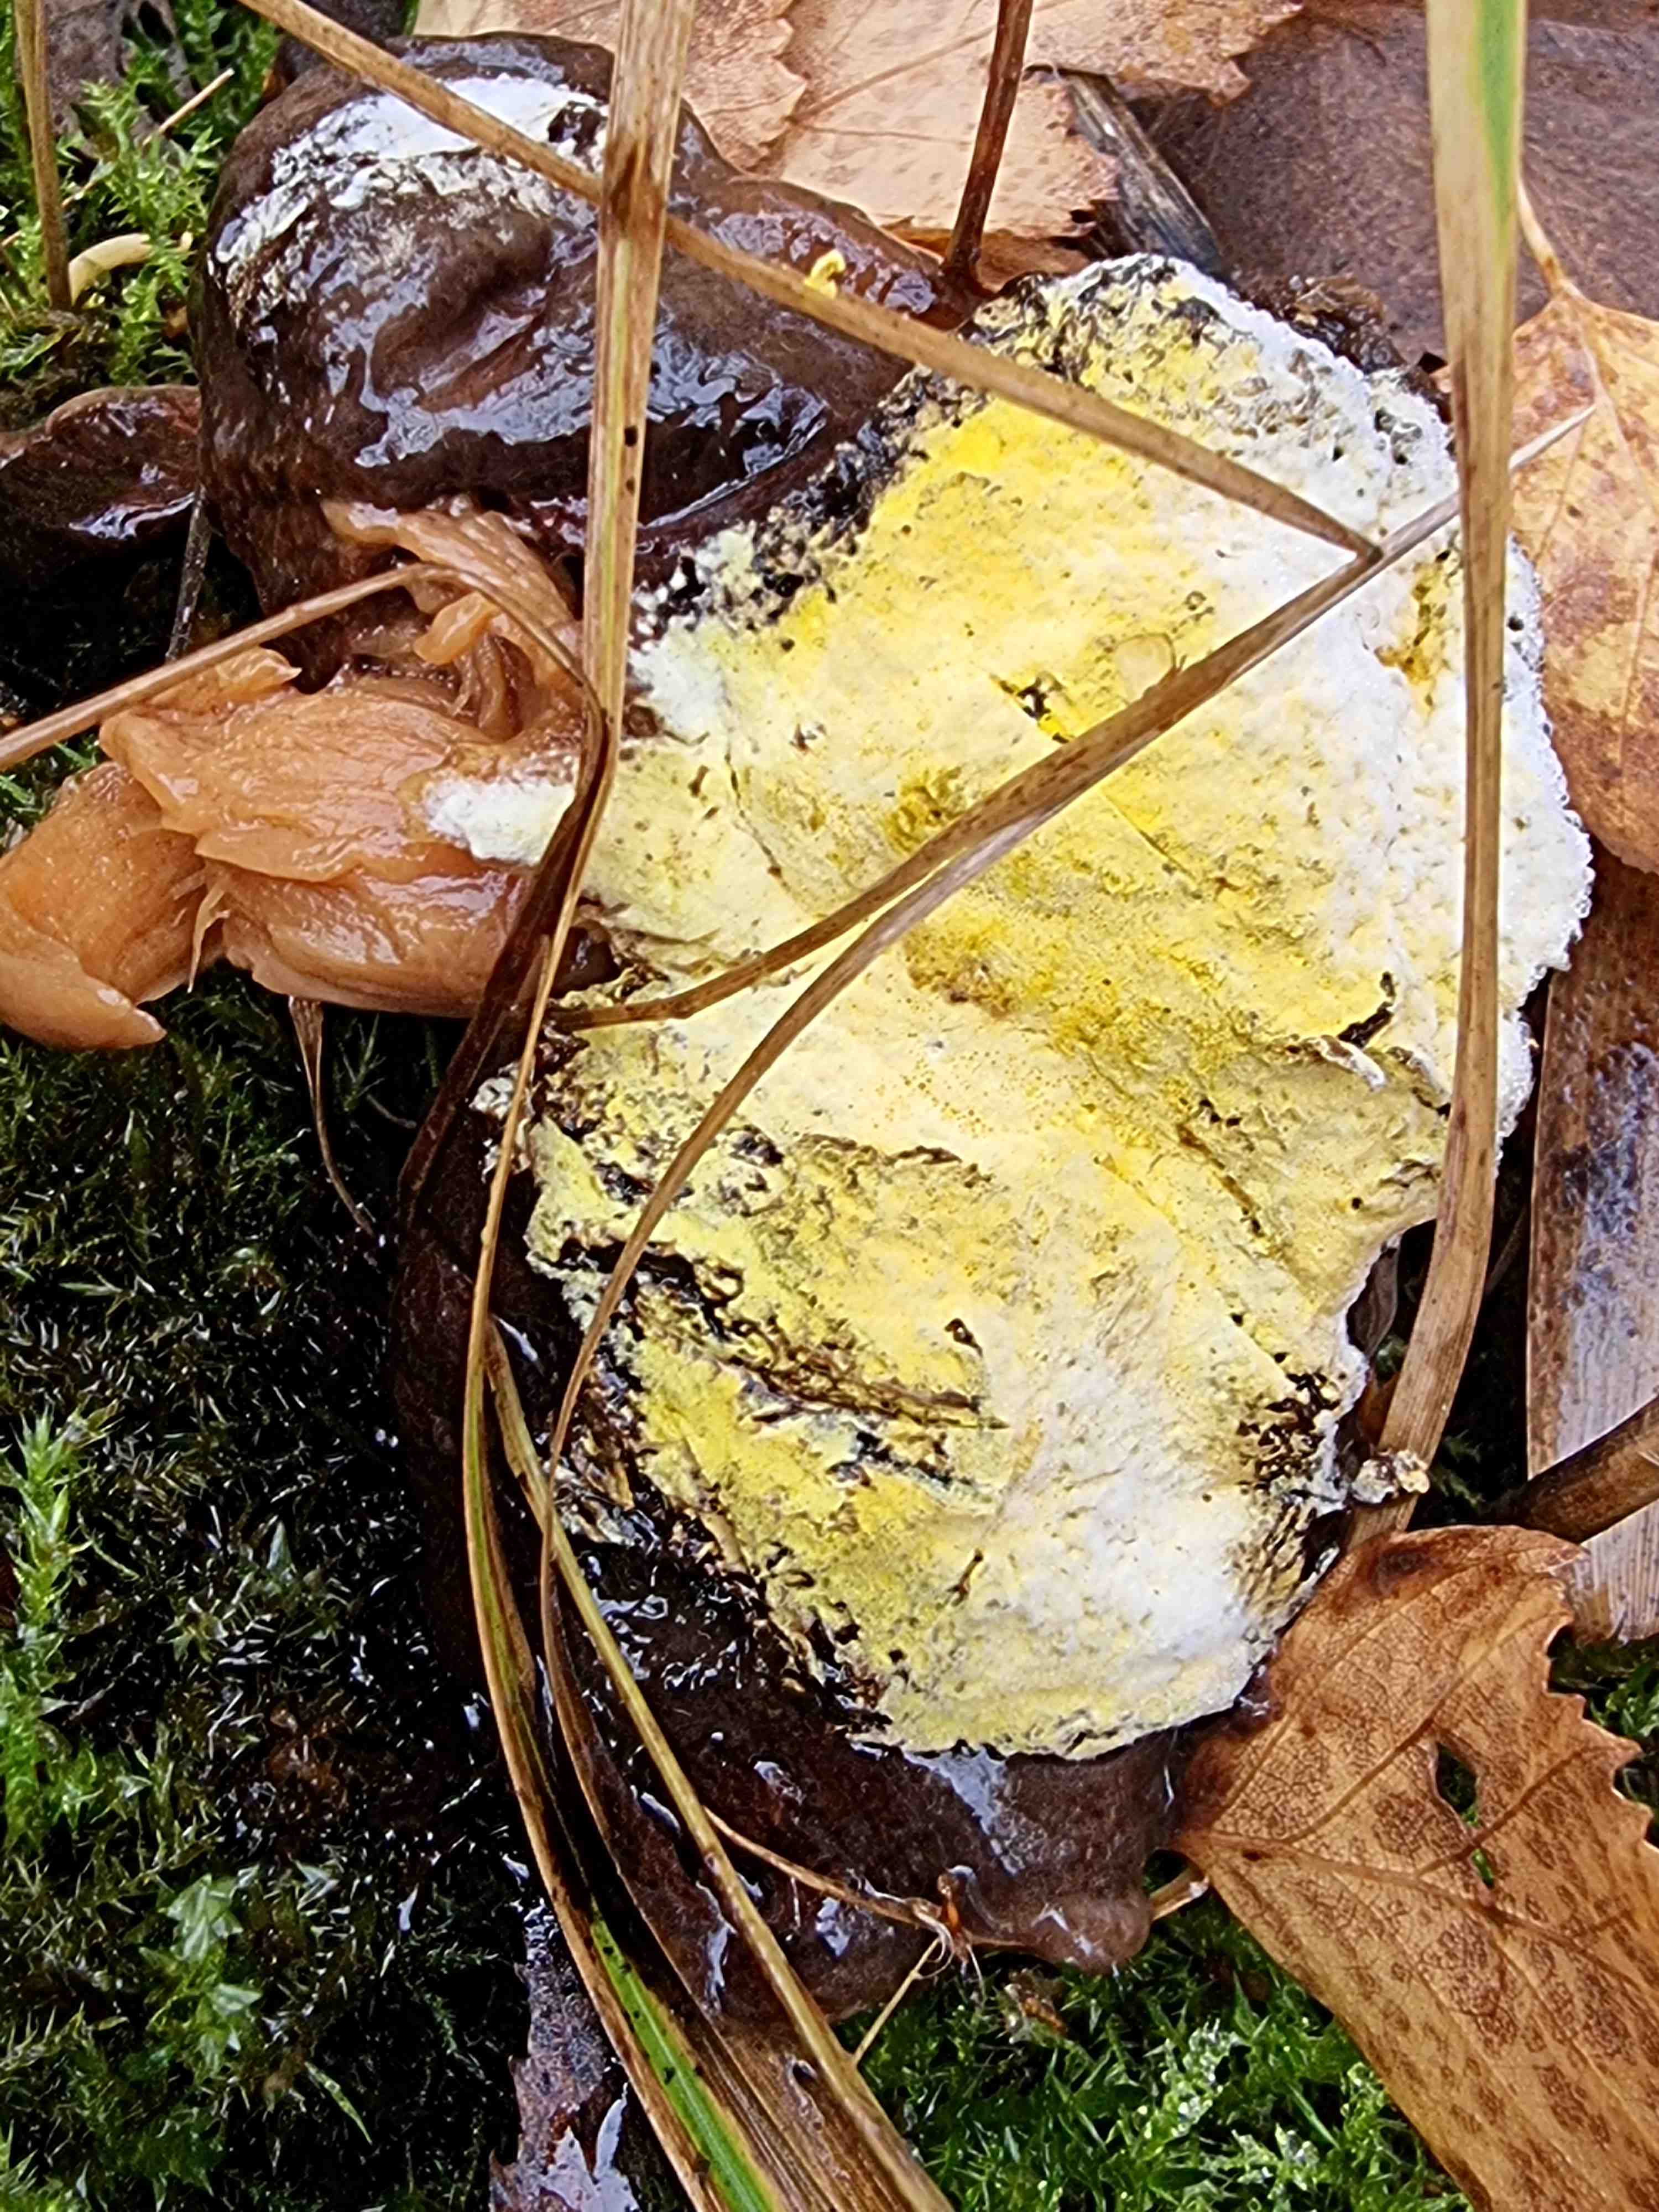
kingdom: Fungi
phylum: Ascomycota
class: Sordariomycetes
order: Hypocreales
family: Hypocreaceae
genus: Hypomyces
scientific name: Hypomyces
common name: snylteskorpe
